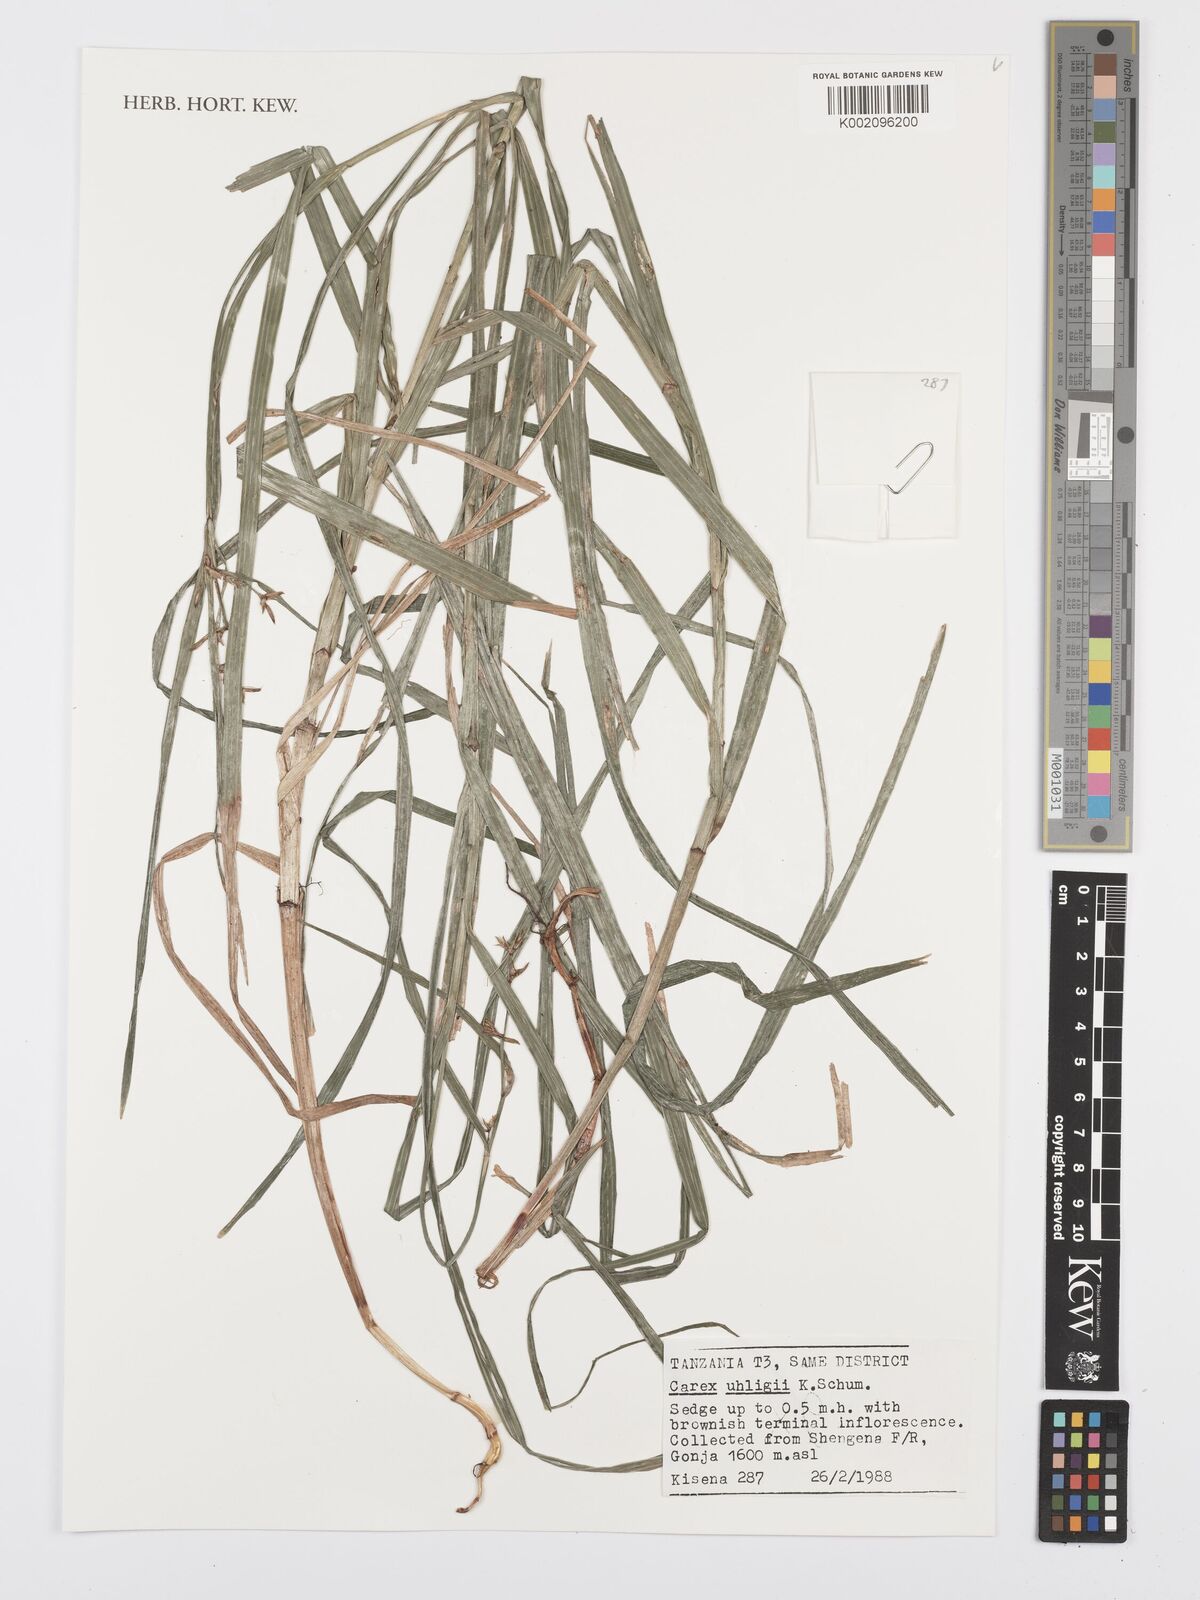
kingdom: Plantae
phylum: Tracheophyta
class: Liliopsida
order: Poales
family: Cyperaceae
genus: Carex
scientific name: Carex uhligii
